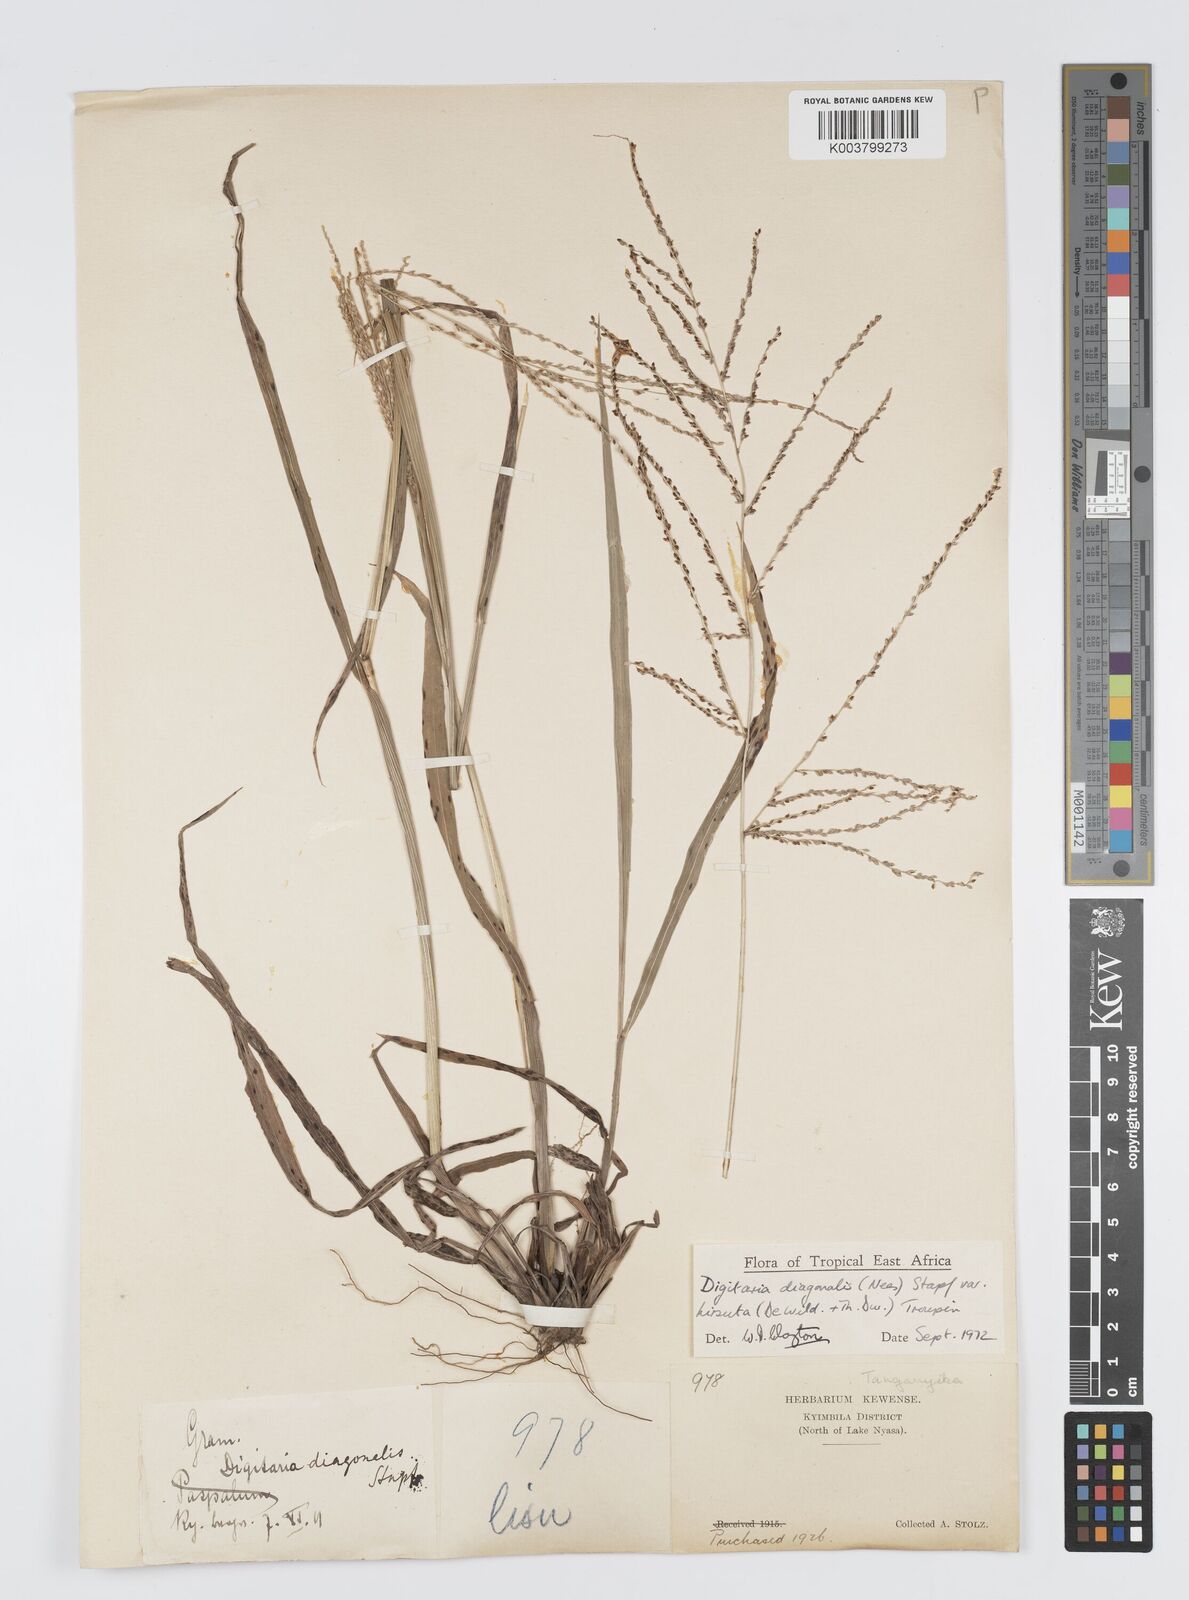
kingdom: Plantae
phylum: Tracheophyta
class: Liliopsida
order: Poales
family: Poaceae
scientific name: Poaceae
